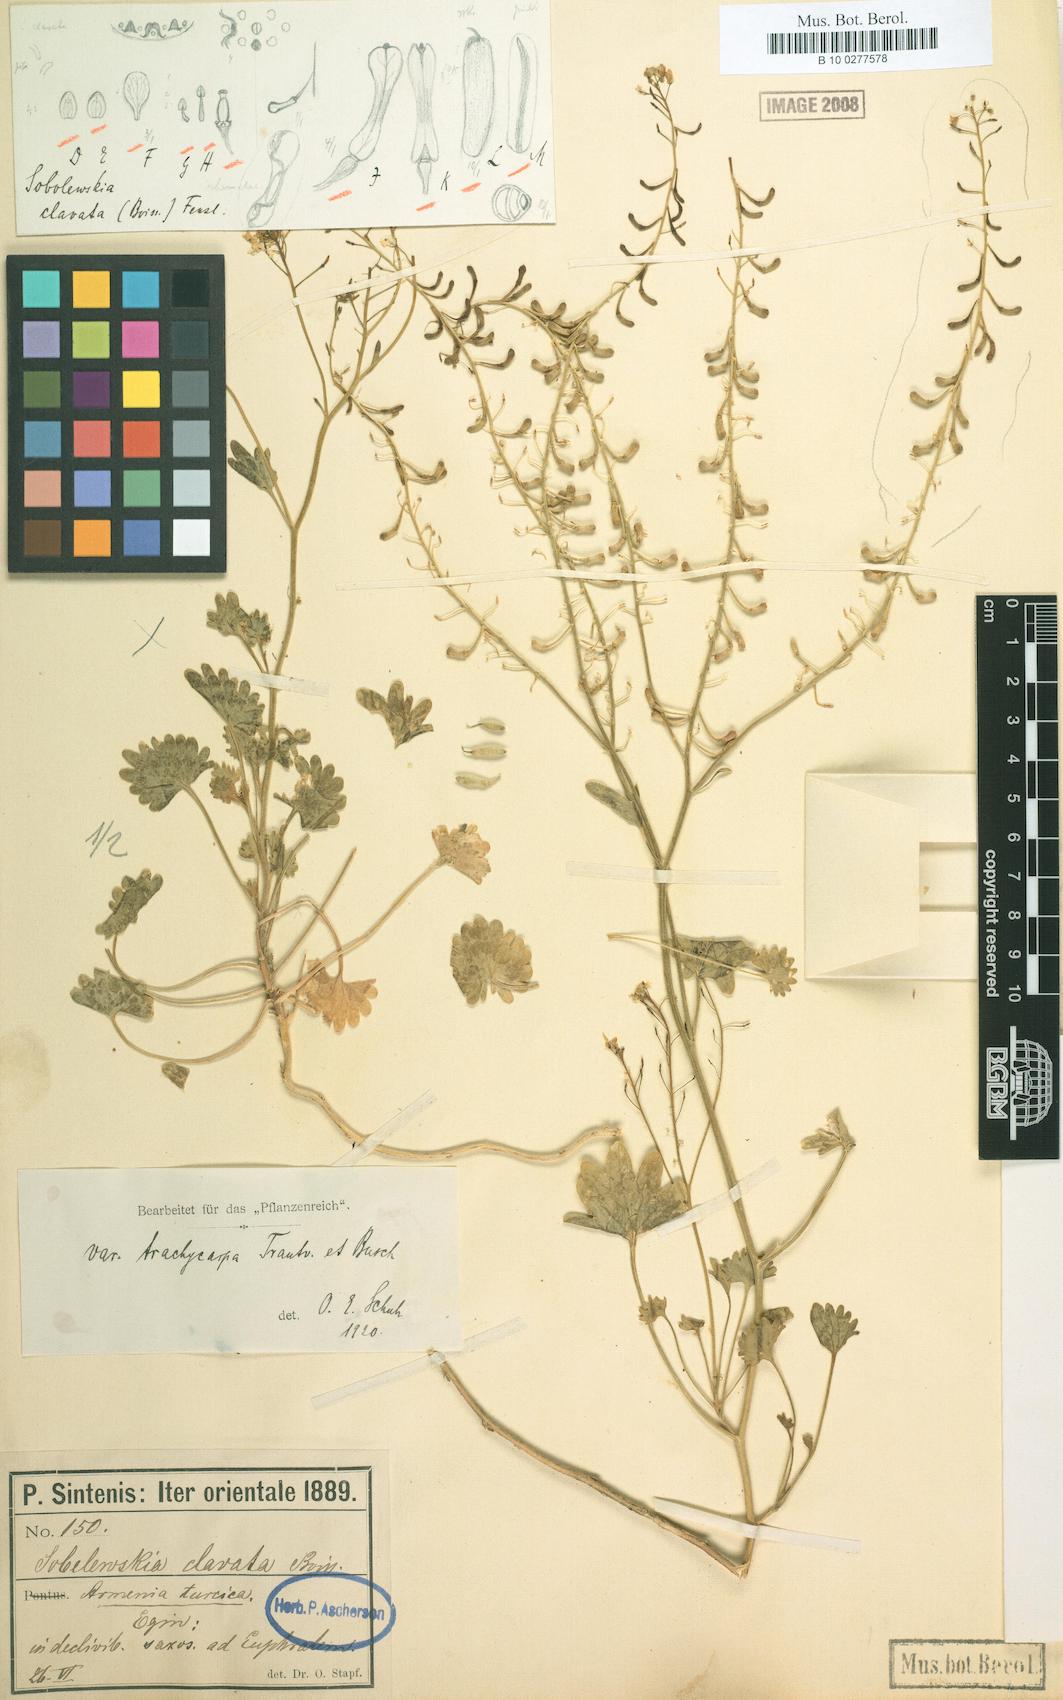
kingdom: Plantae
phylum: Tracheophyta
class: Magnoliopsida
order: Brassicales
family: Brassicaceae
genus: Sobolewskia
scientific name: Sobolewskia clavata
